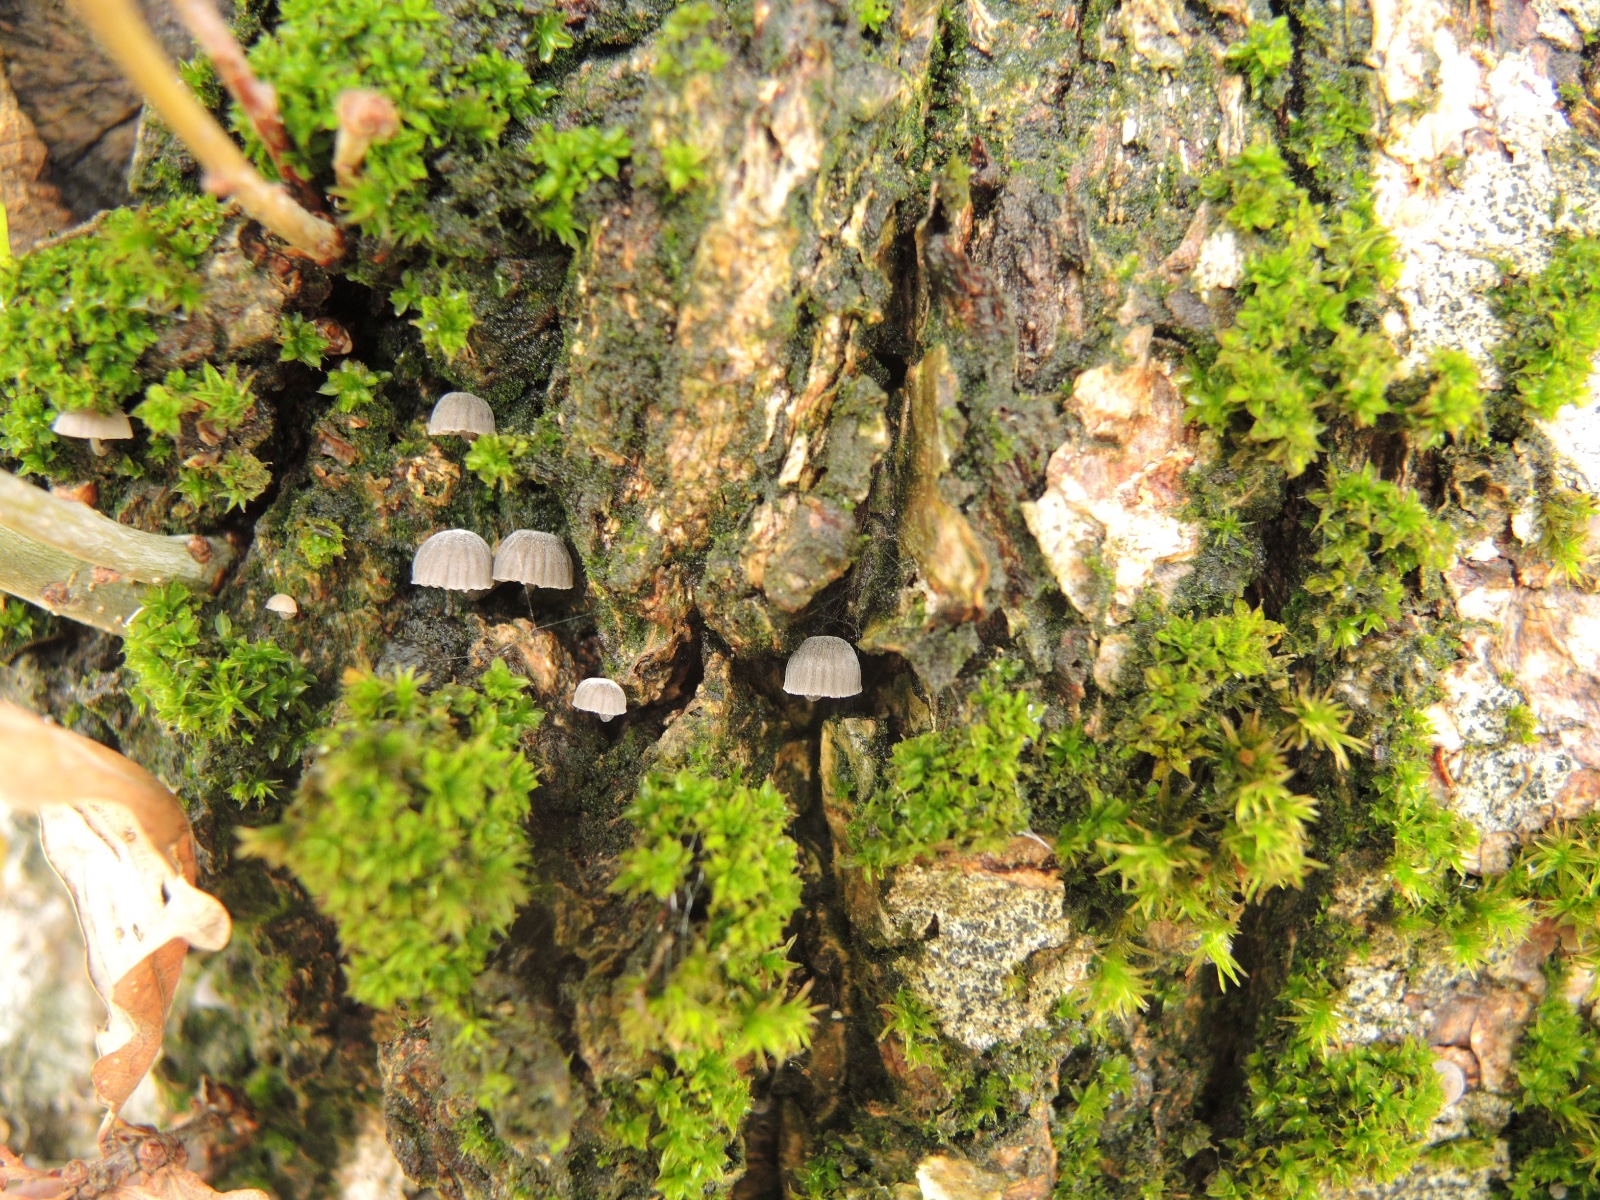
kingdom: Fungi
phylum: Basidiomycota
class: Agaricomycetes
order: Agaricales
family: Mycenaceae
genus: Mycena
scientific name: Mycena pseudocorticola
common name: gråblå bark-huesvamp
